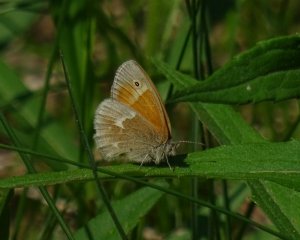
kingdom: Animalia
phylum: Arthropoda
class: Insecta
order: Lepidoptera
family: Nymphalidae
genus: Coenonympha
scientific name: Coenonympha tullia
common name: Large Heath
